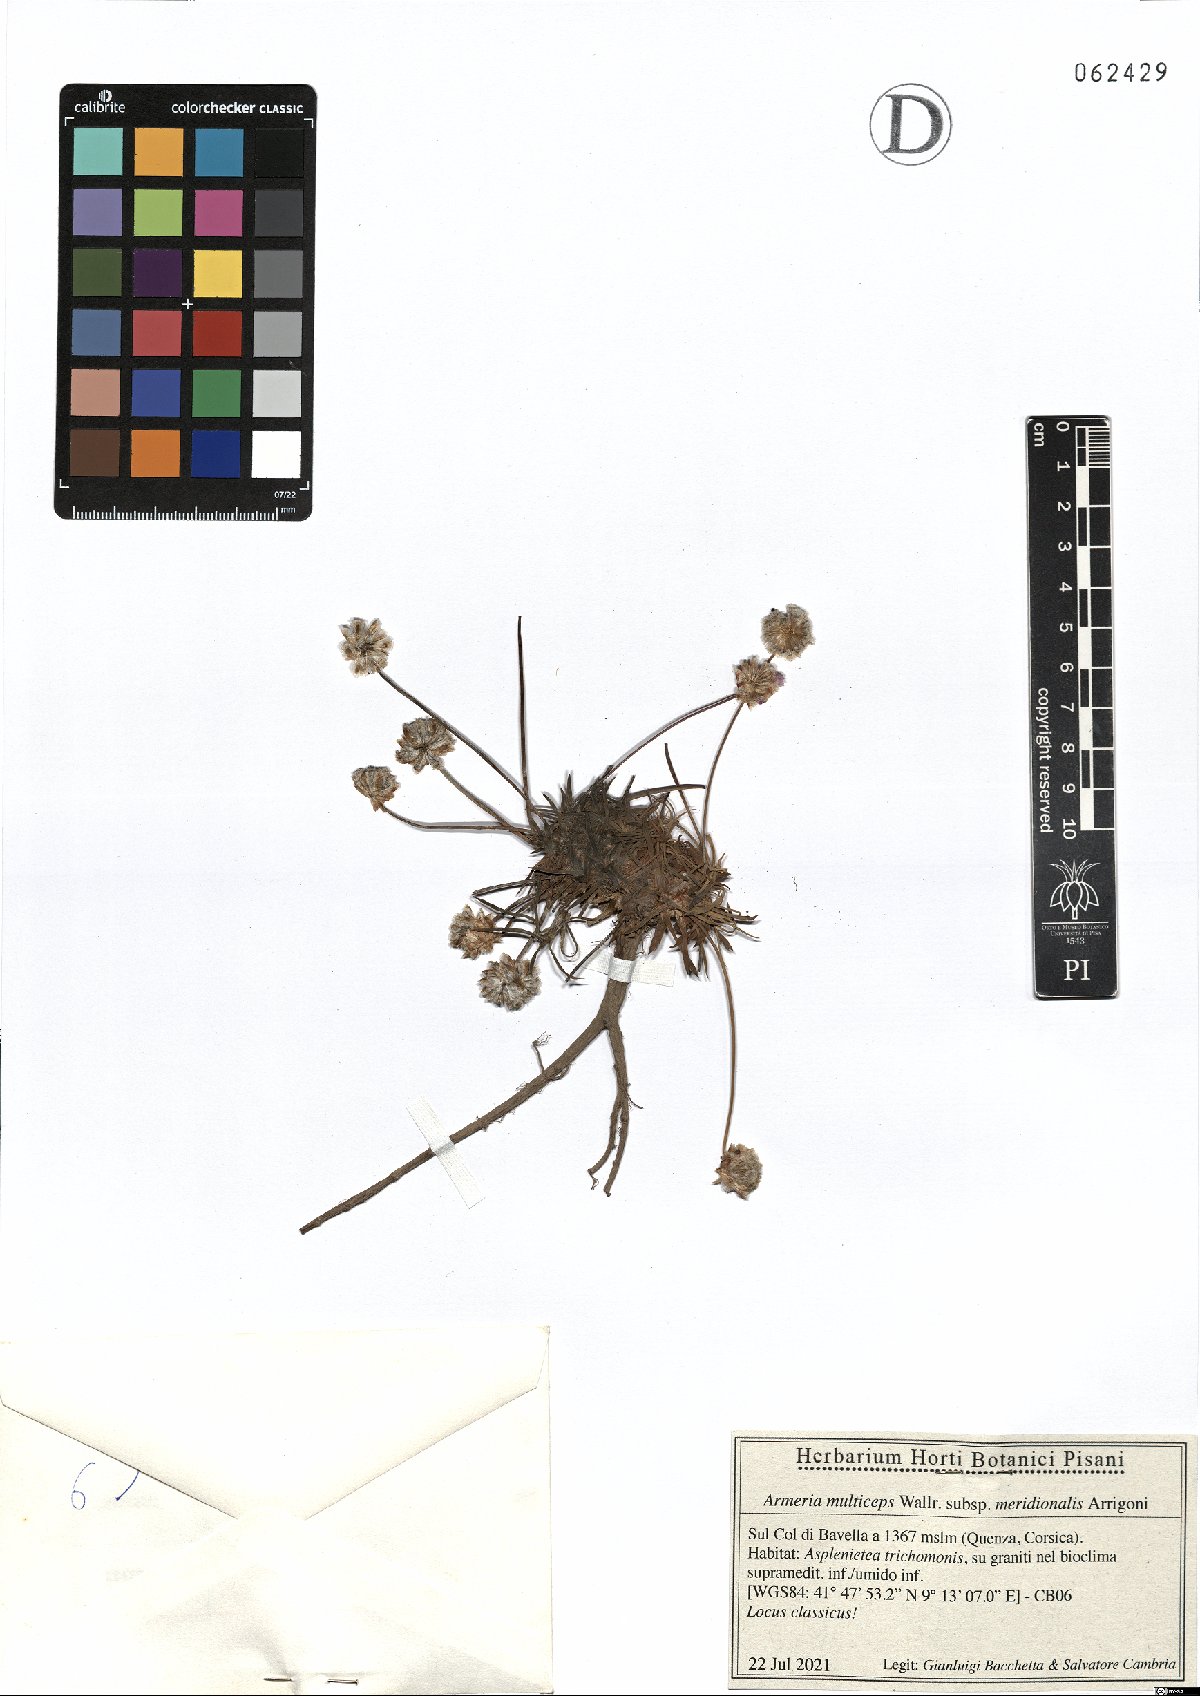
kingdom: Plantae
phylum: Tracheophyta
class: Magnoliopsida
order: Caryophyllales
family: Plumbaginaceae
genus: Armeria
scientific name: Armeria multiceps
